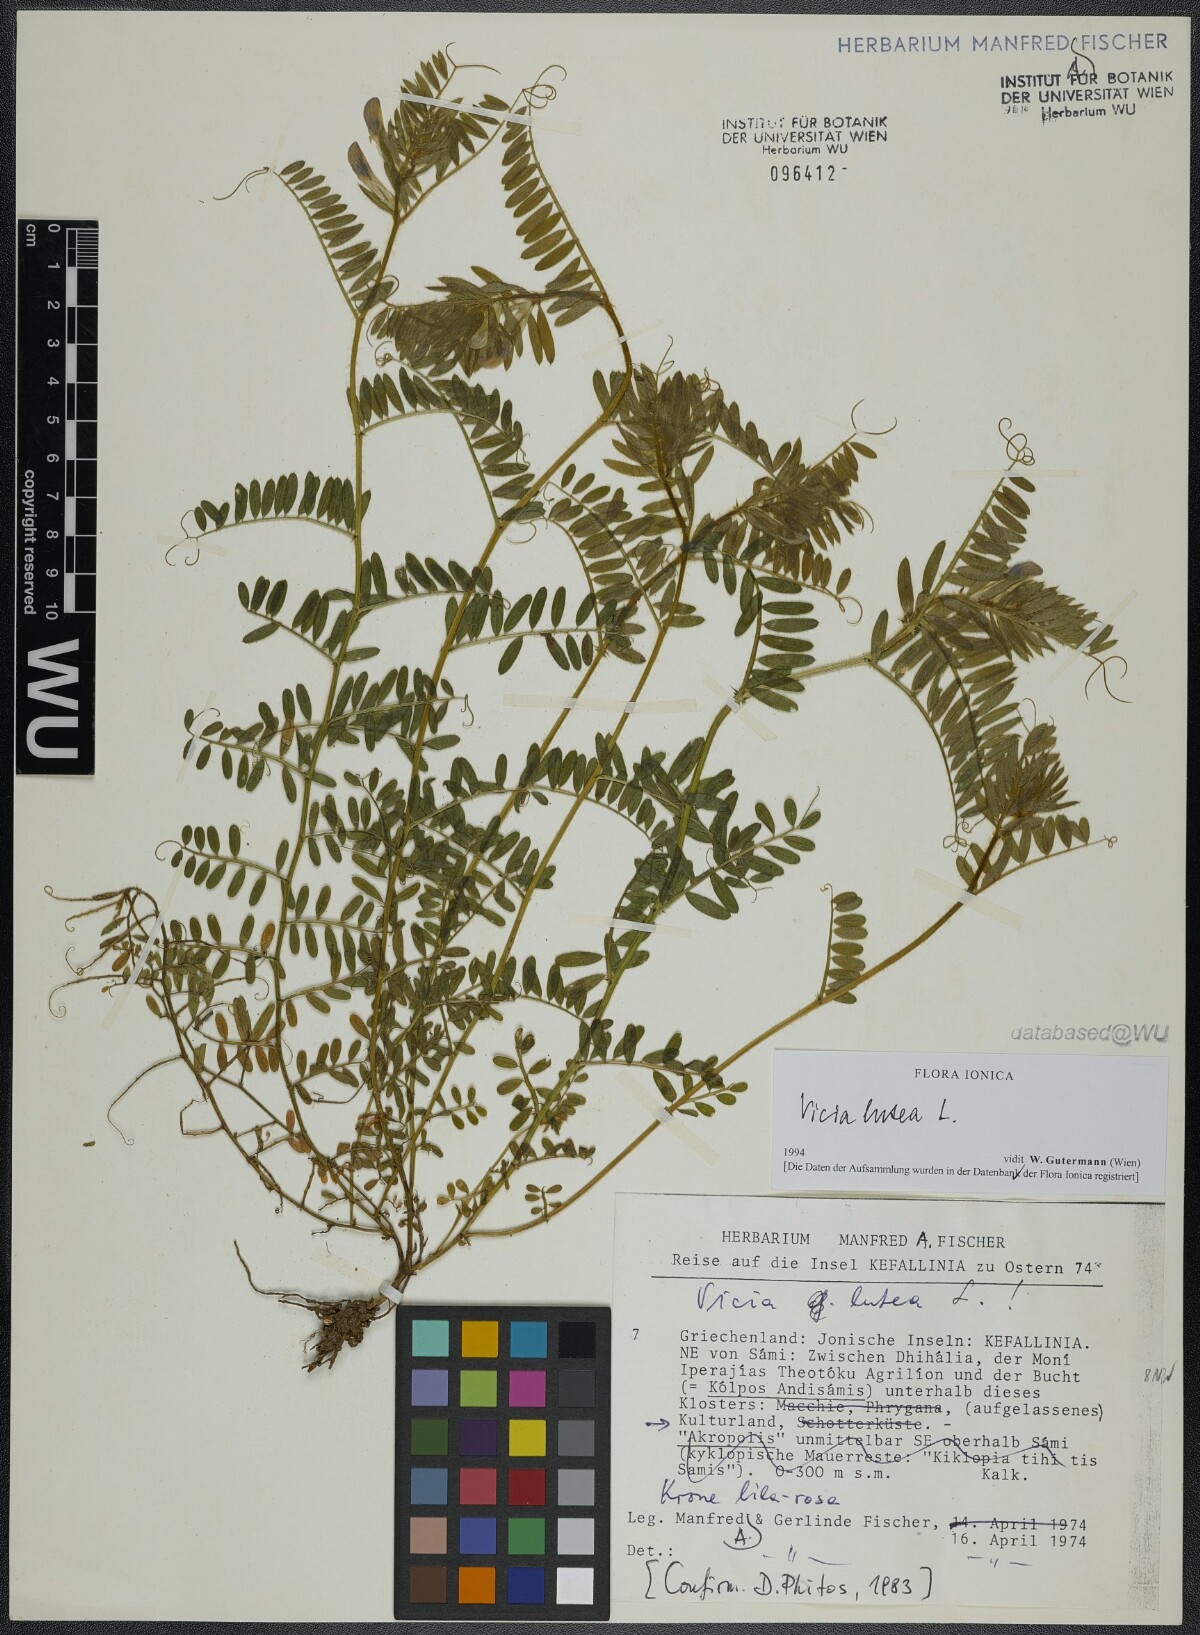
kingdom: Plantae
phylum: Tracheophyta
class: Magnoliopsida
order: Fabales
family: Fabaceae
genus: Vicia
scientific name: Vicia lutea
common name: Smooth yellow vetch
